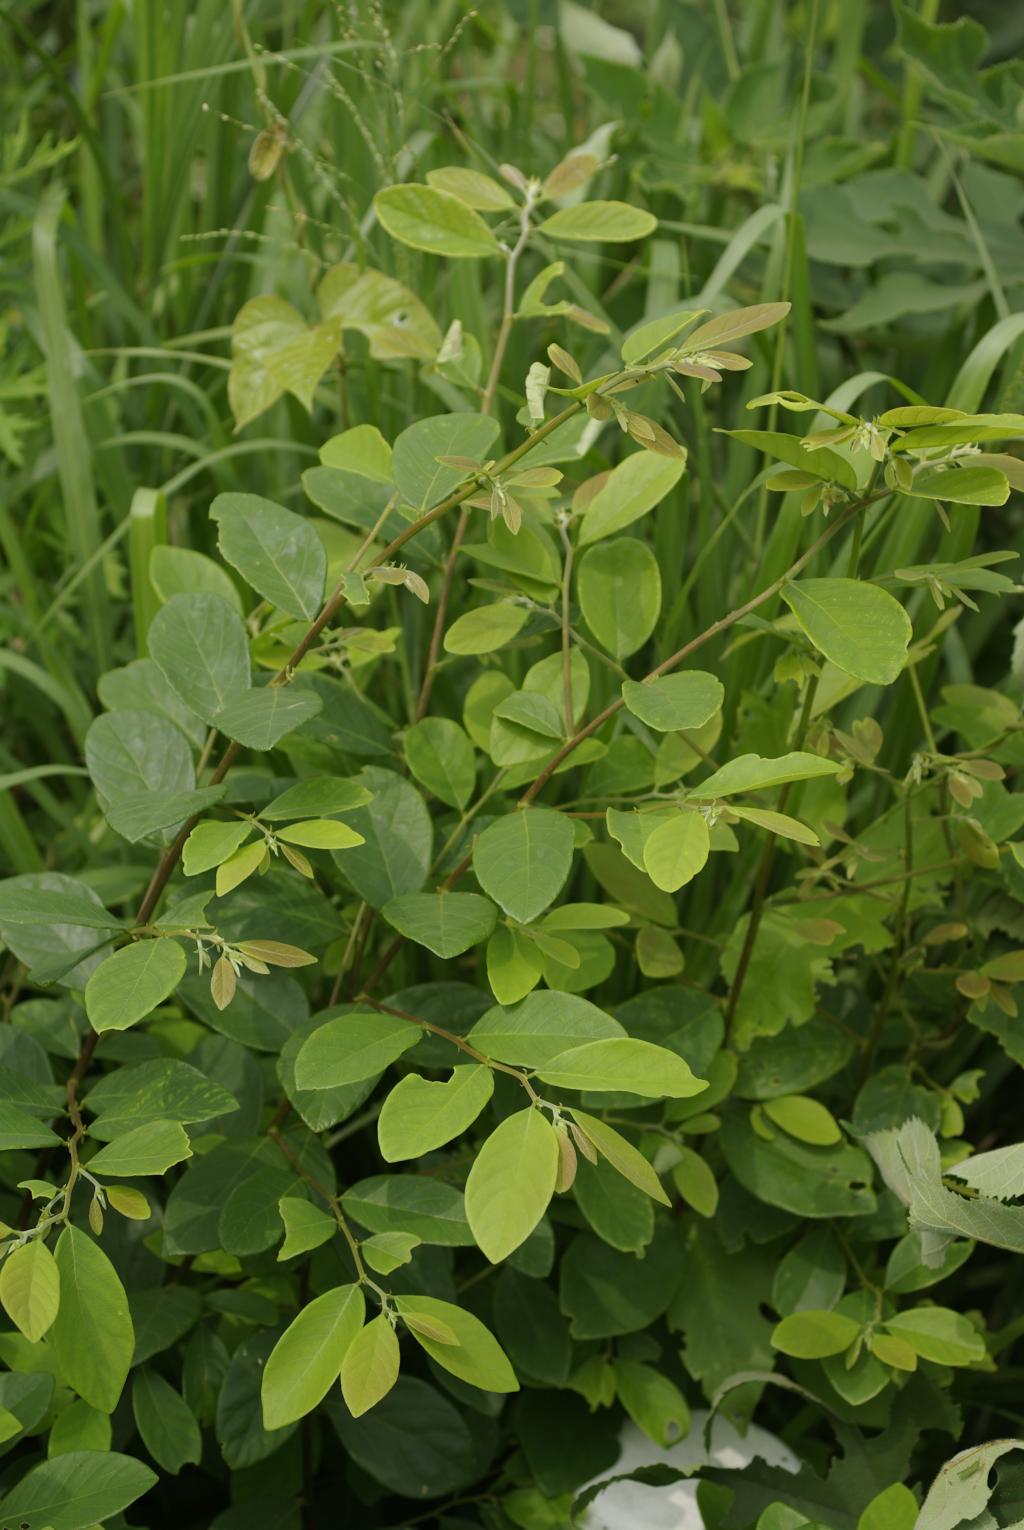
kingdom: Plantae
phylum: Tracheophyta
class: Magnoliopsida
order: Malpighiales
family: Phyllanthaceae
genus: Bridelia
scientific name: Bridelia tomentosa
